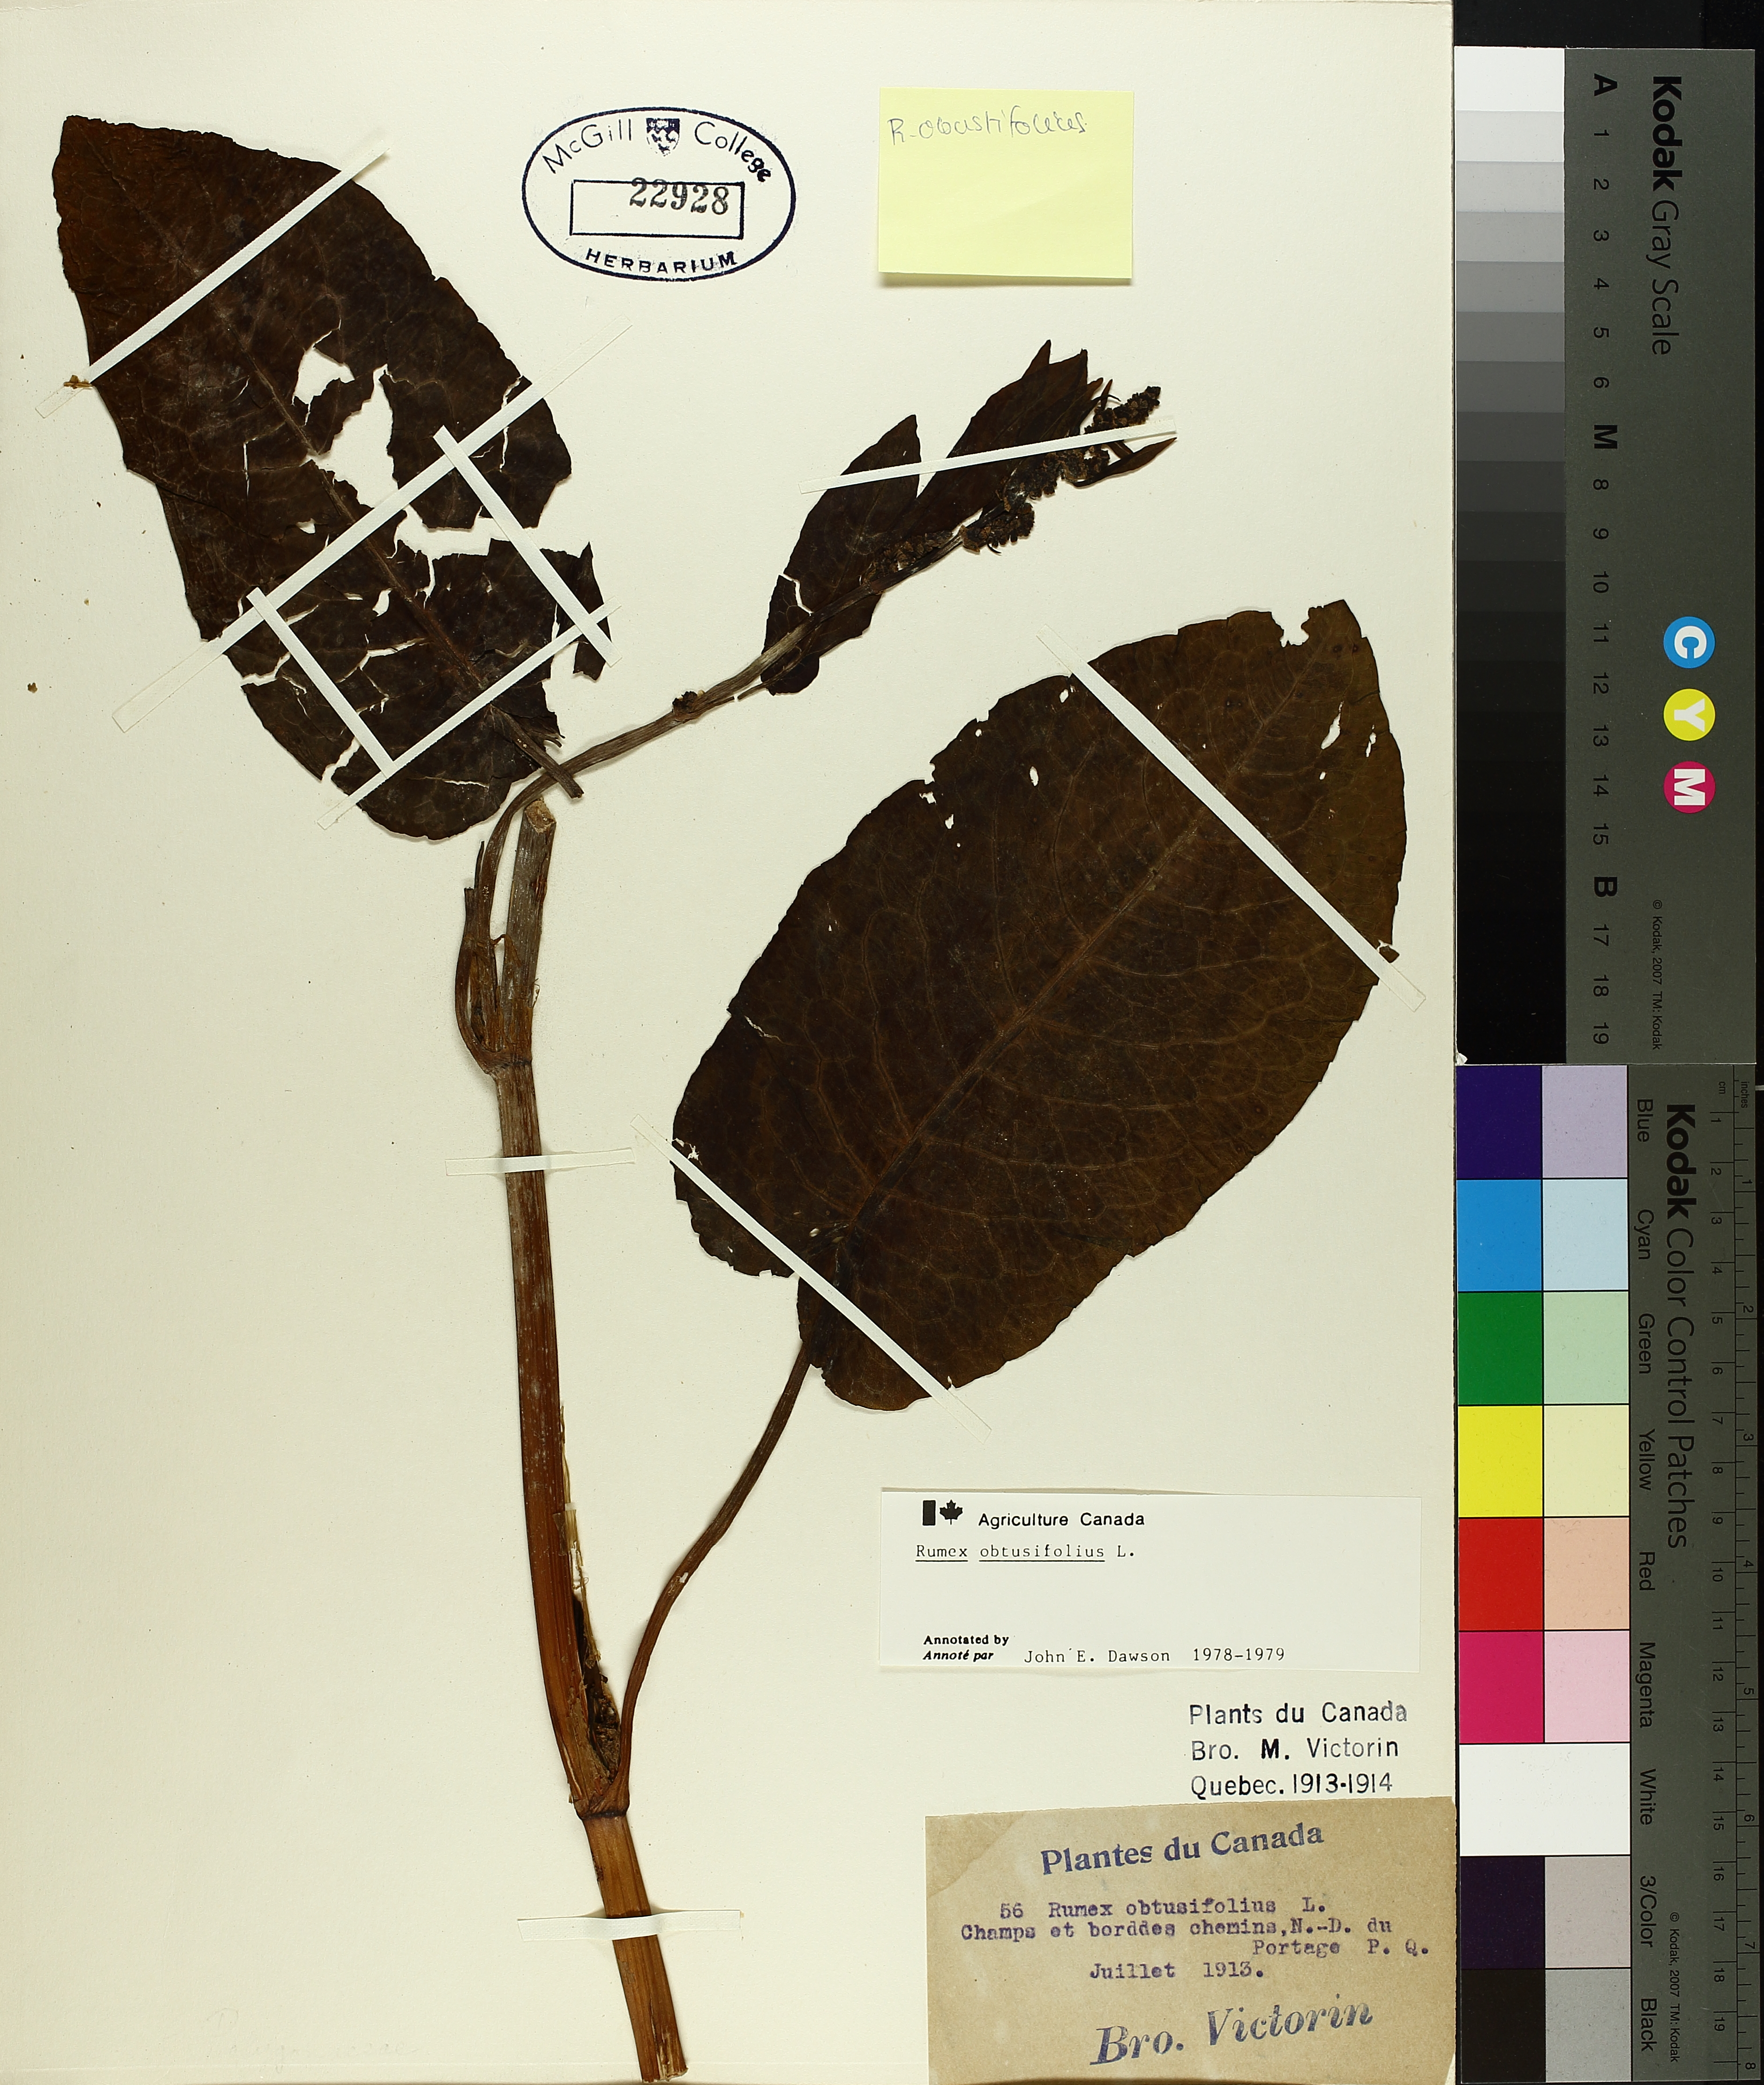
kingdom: Plantae
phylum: Tracheophyta
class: Magnoliopsida
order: Caryophyllales
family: Polygonaceae
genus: Rumex
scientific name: Rumex obtusifolius
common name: Bitter dock
